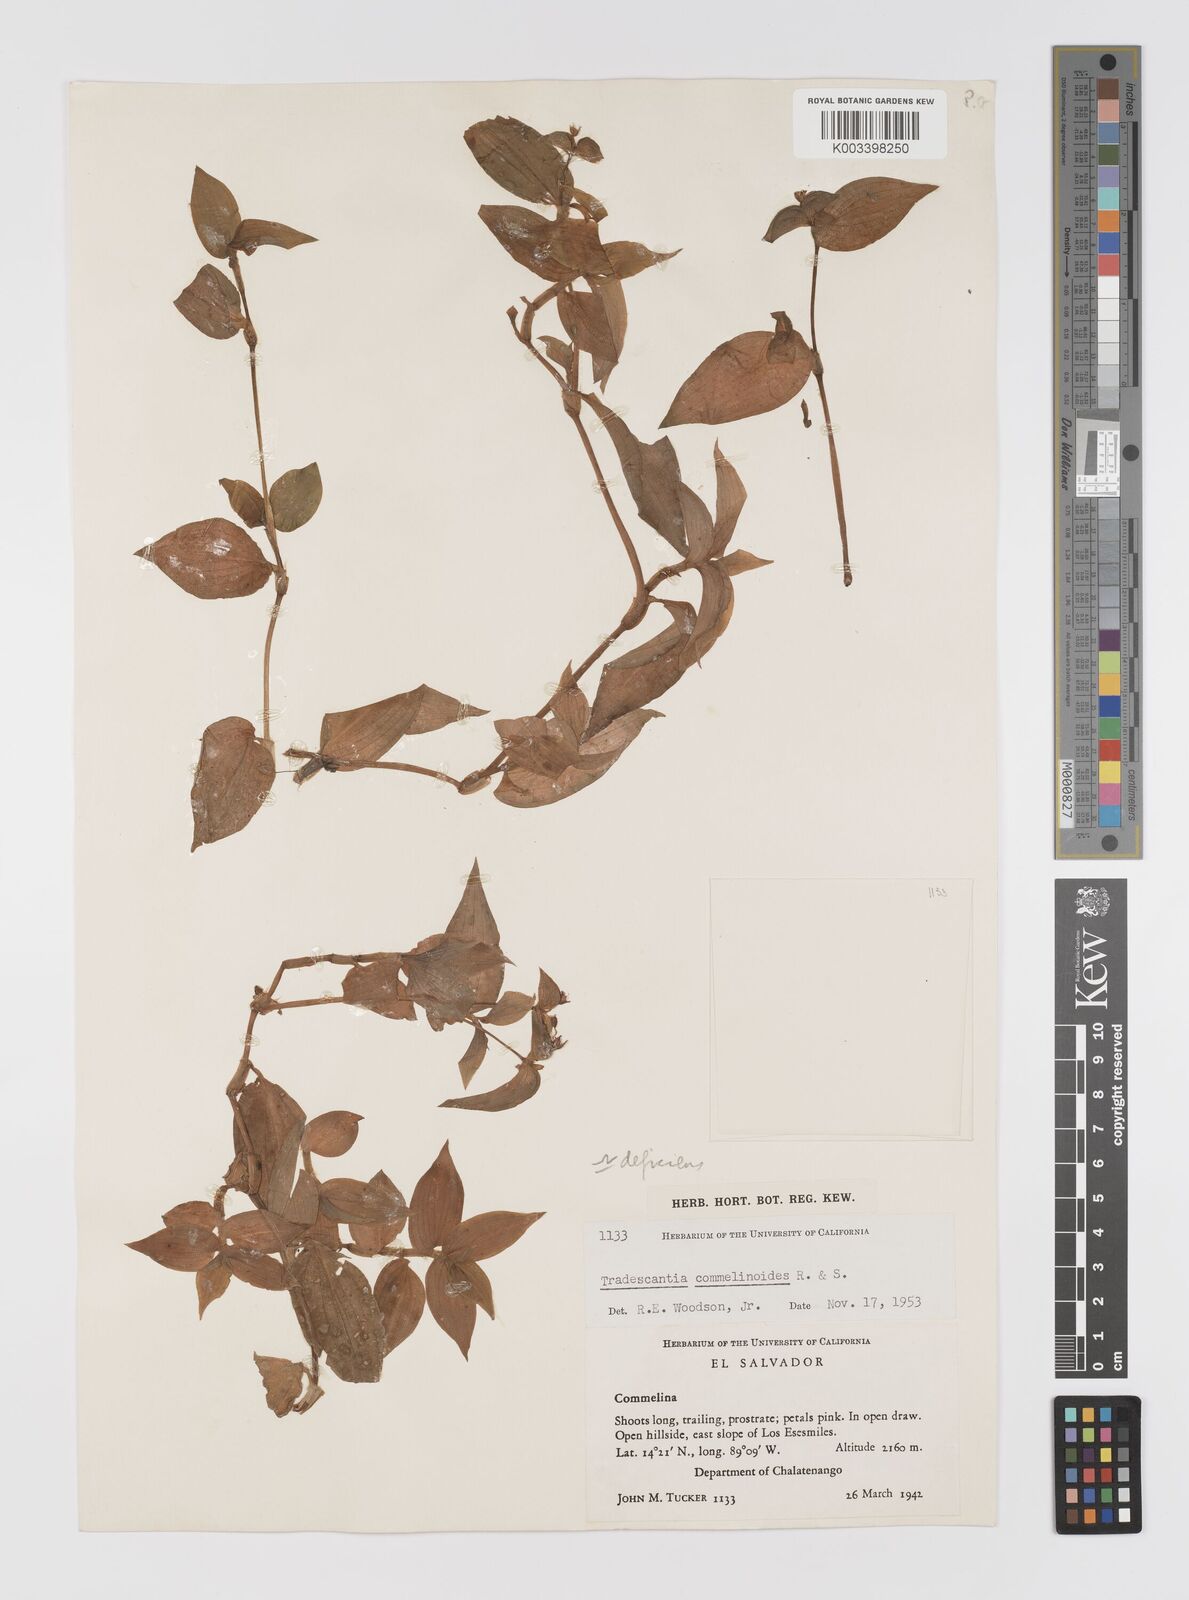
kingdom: Plantae
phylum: Tracheophyta
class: Liliopsida
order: Commelinales
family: Commelinaceae
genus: Tradescantia
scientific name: Tradescantia deficiens
